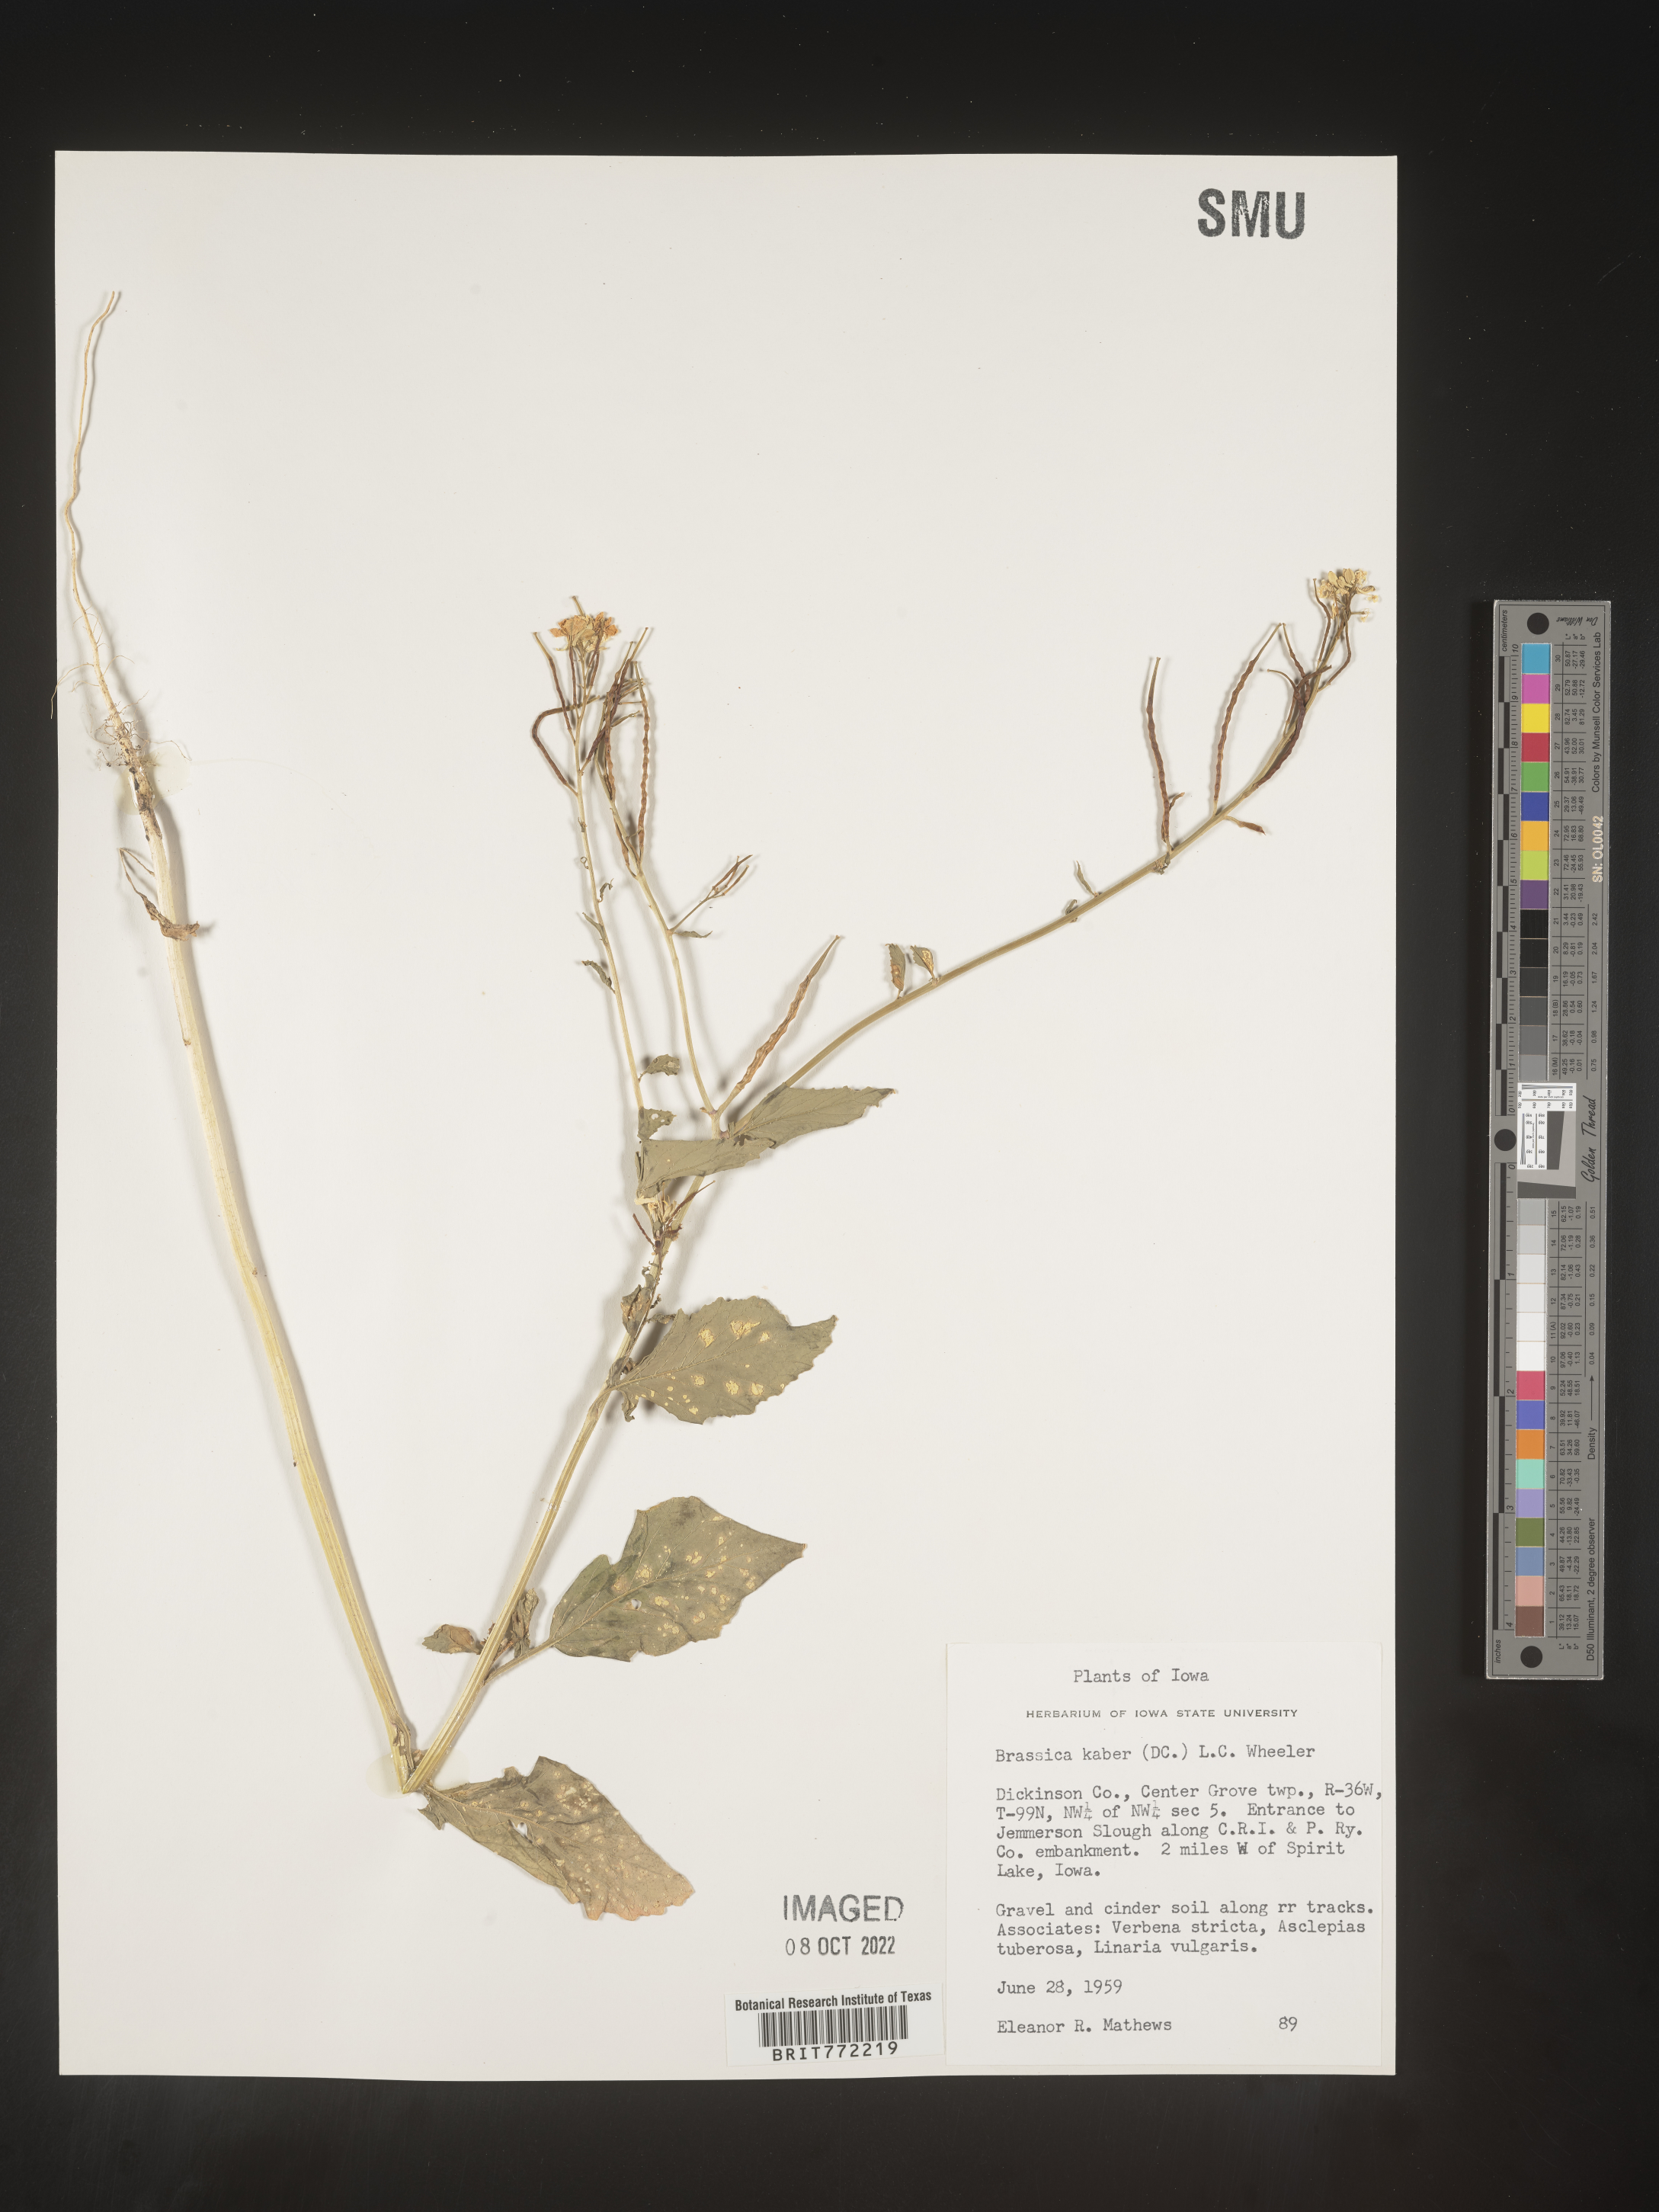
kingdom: Plantae
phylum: Tracheophyta
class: Magnoliopsida
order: Brassicales
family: Brassicaceae
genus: Sinapis
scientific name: Sinapis arvensis
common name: Charlock
